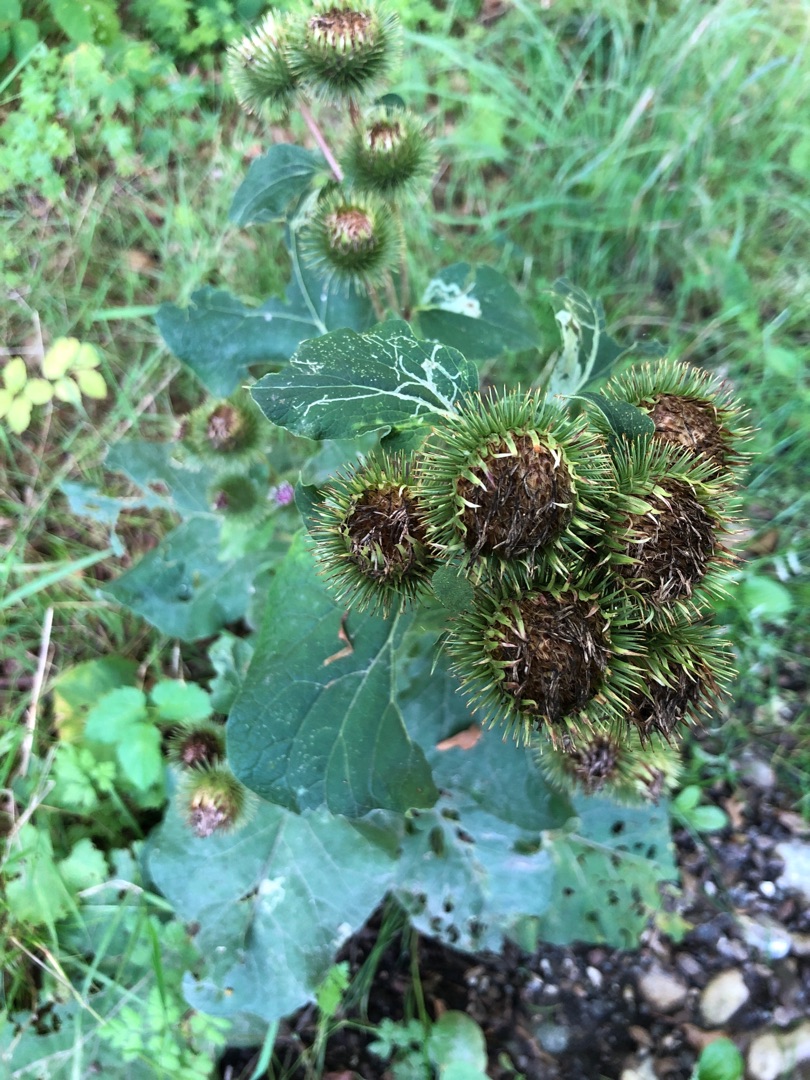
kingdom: Plantae
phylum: Tracheophyta
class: Magnoliopsida
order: Asterales
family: Asteraceae
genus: Arctium
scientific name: Arctium lappa
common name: Glat burre
